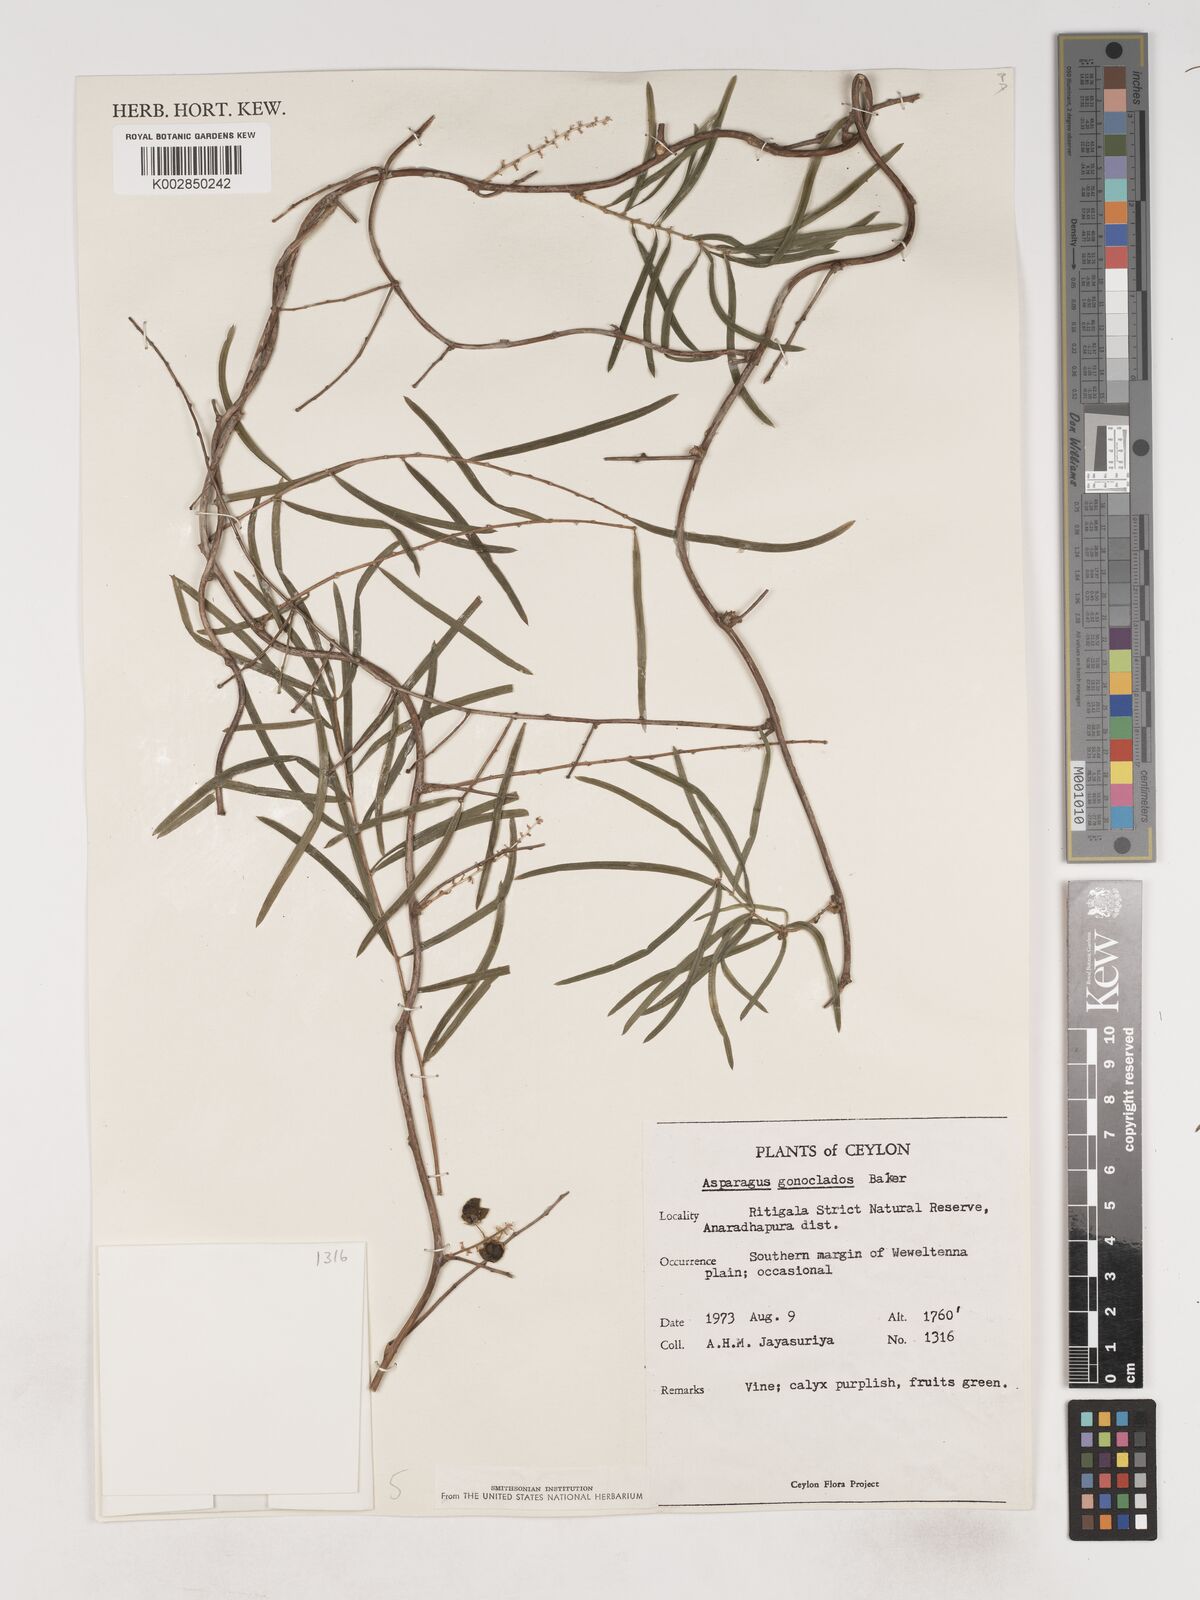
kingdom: Plantae
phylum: Tracheophyta
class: Liliopsida
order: Asparagales
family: Asparagaceae
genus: Asparagus
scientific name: Asparagus gonoclados
